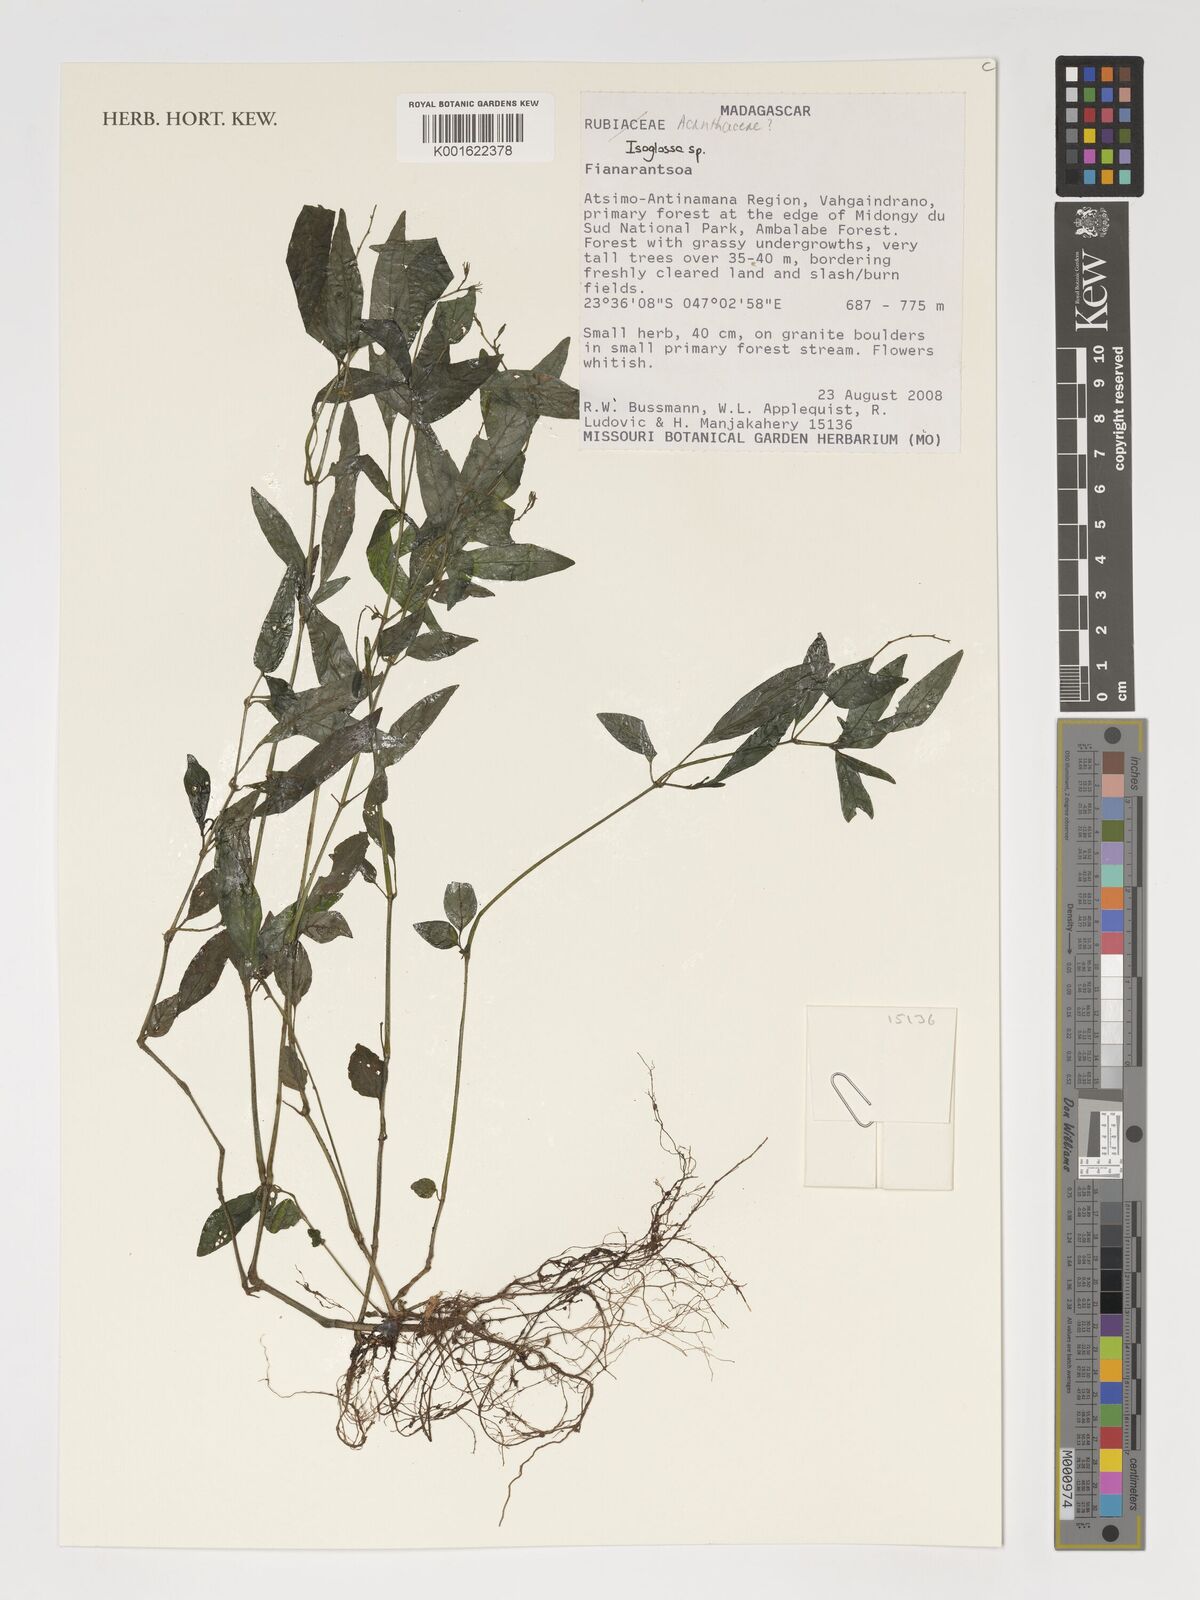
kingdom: Plantae
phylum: Tracheophyta
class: Magnoliopsida
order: Lamiales
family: Acanthaceae
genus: Isoglossa
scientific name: Isoglossa
